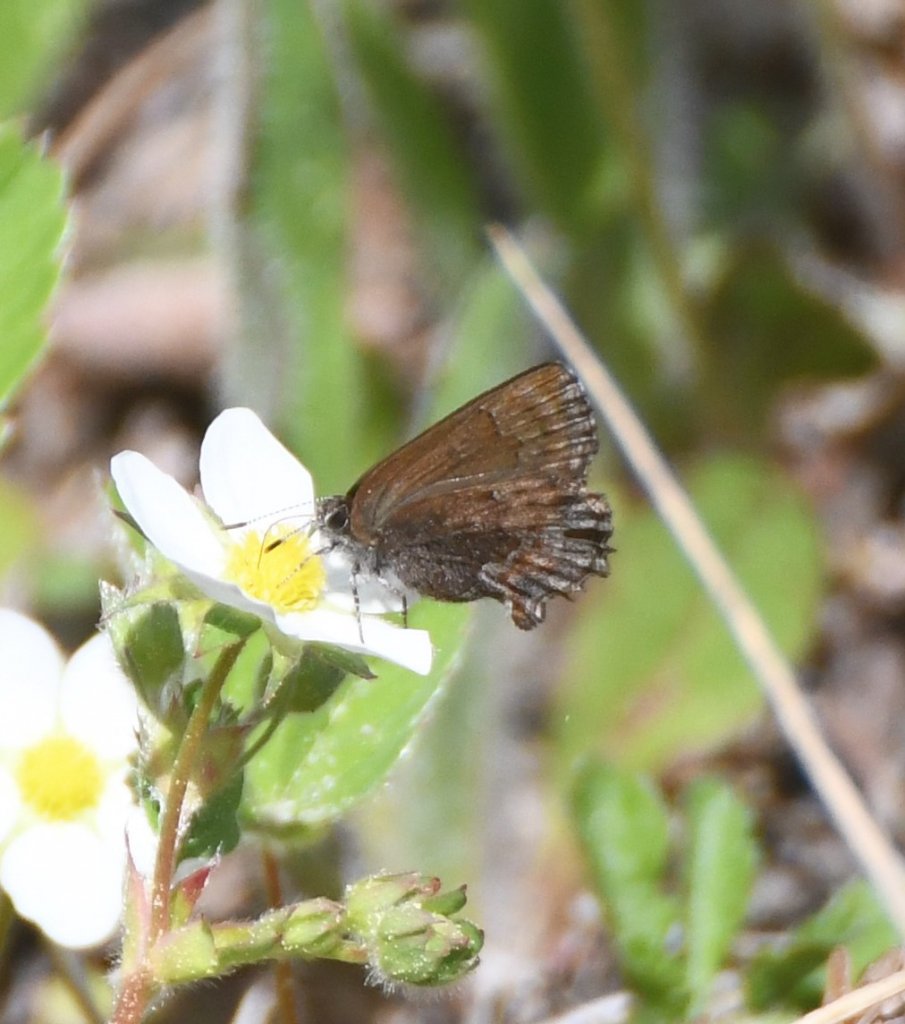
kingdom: Animalia
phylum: Arthropoda
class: Insecta
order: Lepidoptera
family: Lycaenidae
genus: Callophrys
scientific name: Callophrys polios
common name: Hoary Elfin
